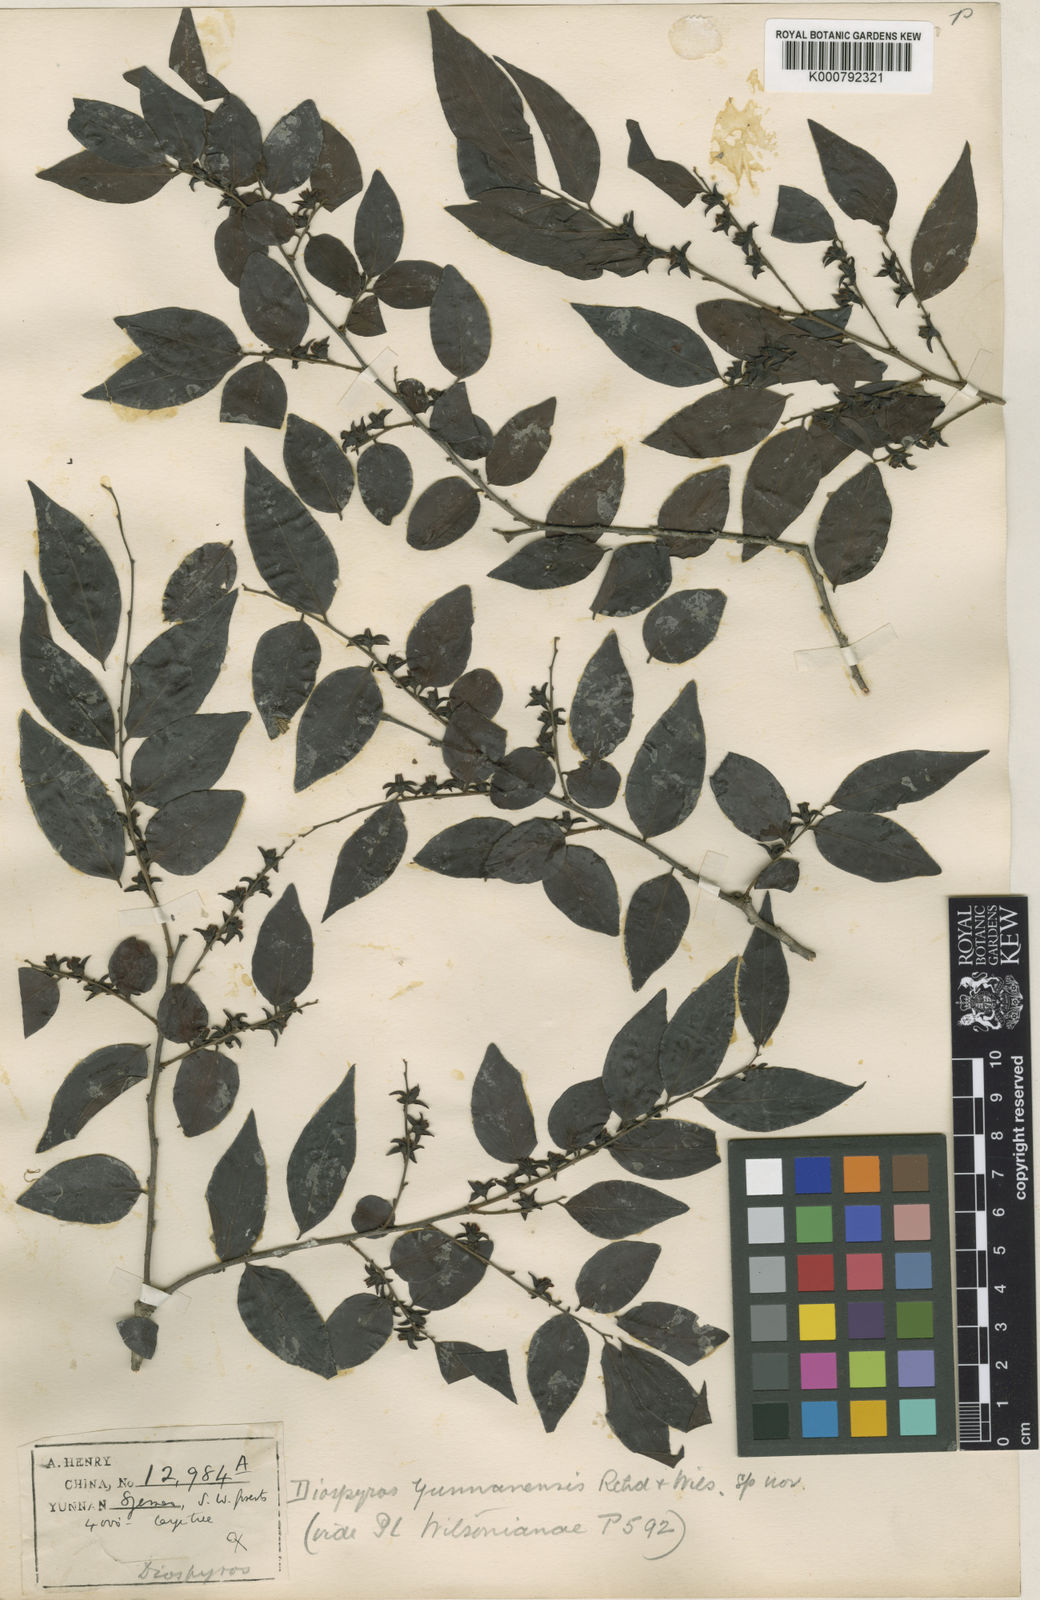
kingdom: Plantae
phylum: Tracheophyta
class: Magnoliopsida
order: Ericales
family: Ebenaceae
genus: Diospyros
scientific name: Diospyros yunnanensis
